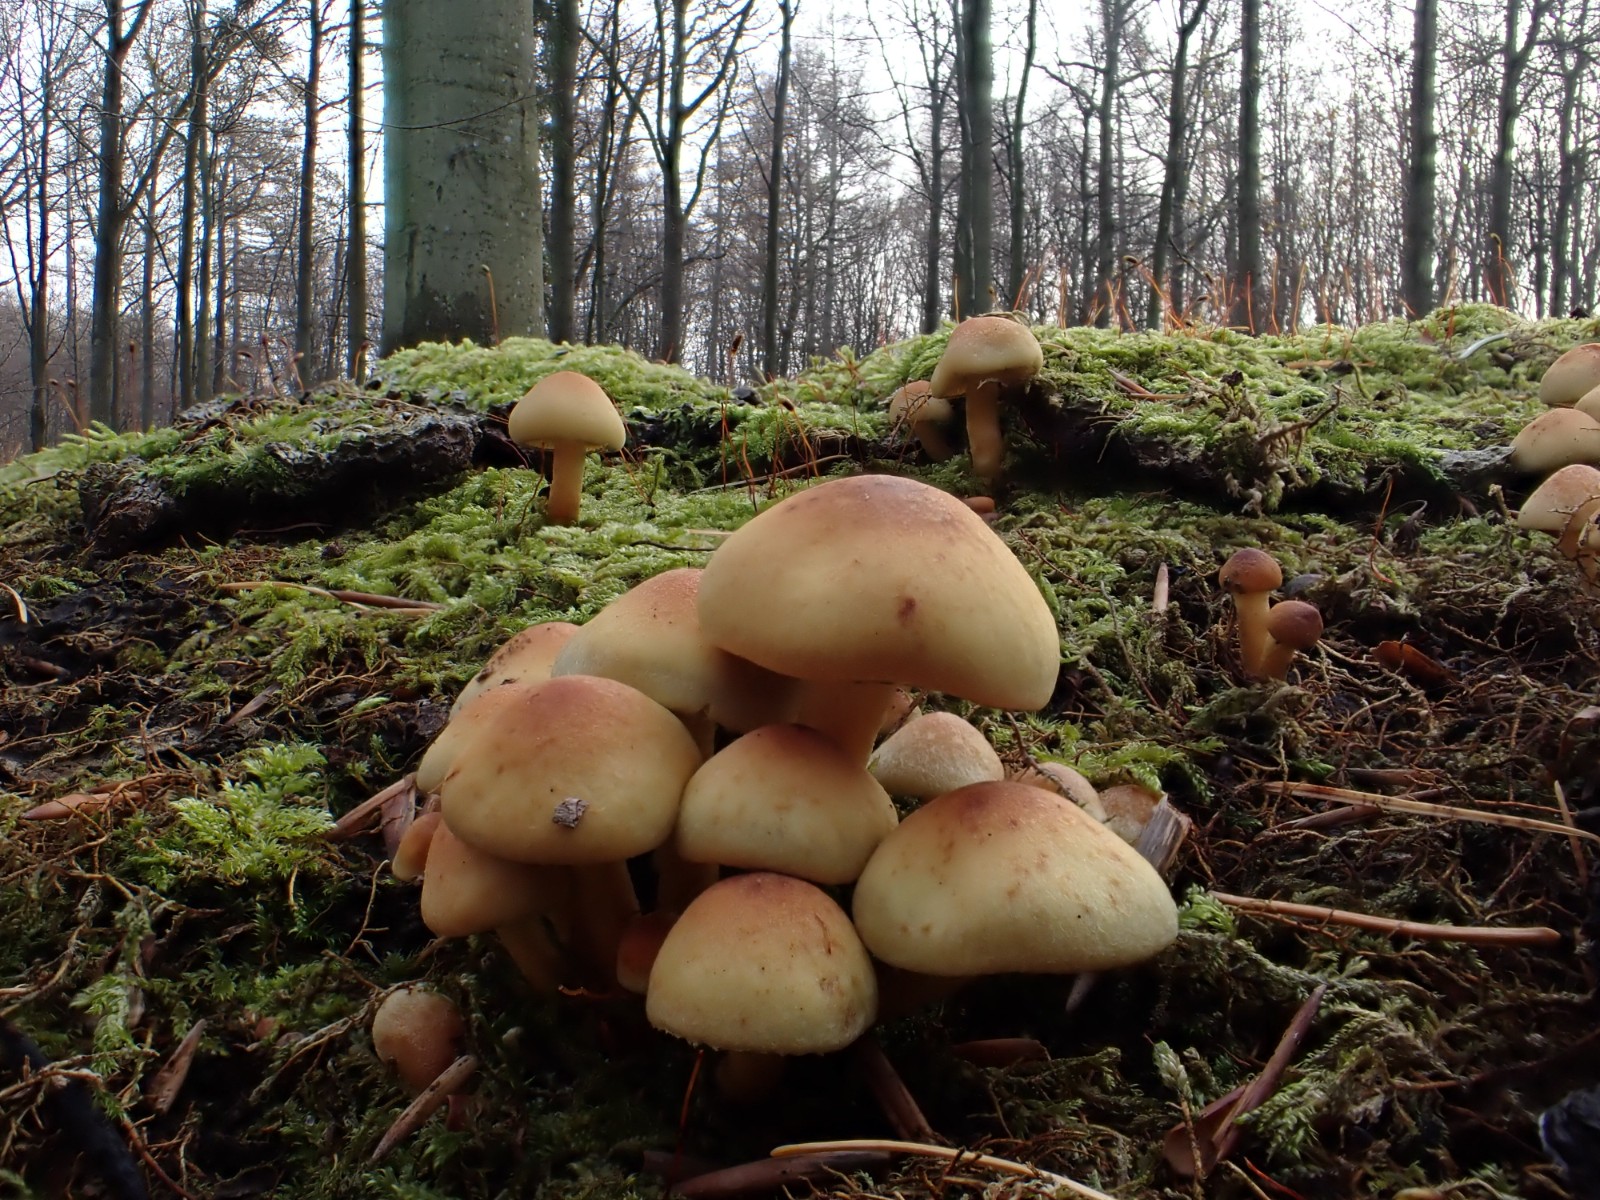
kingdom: Fungi
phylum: Basidiomycota
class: Agaricomycetes
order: Agaricales
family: Strophariaceae
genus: Hypholoma
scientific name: Hypholoma
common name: svovlhat
